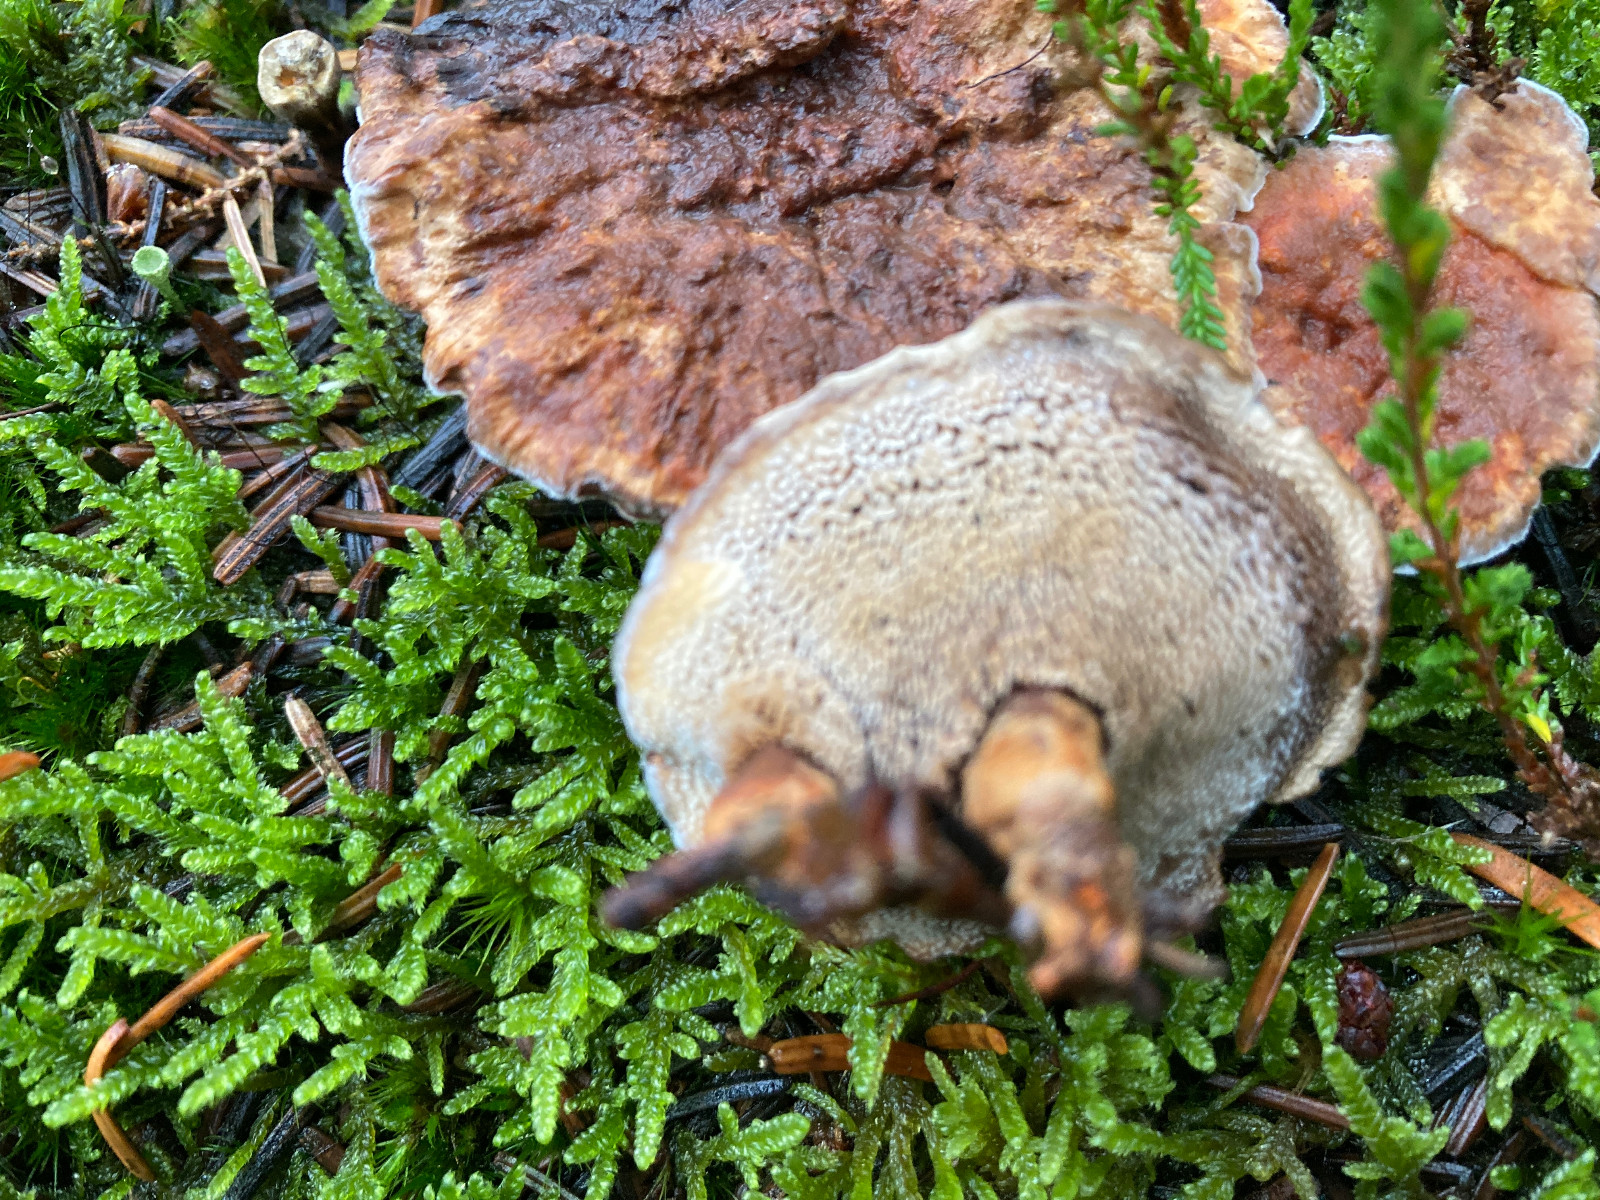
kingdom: Fungi
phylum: Basidiomycota
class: Agaricomycetes
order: Thelephorales
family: Bankeraceae
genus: Hydnellum
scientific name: Hydnellum aurantiacum
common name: orange korkpigsvamp
